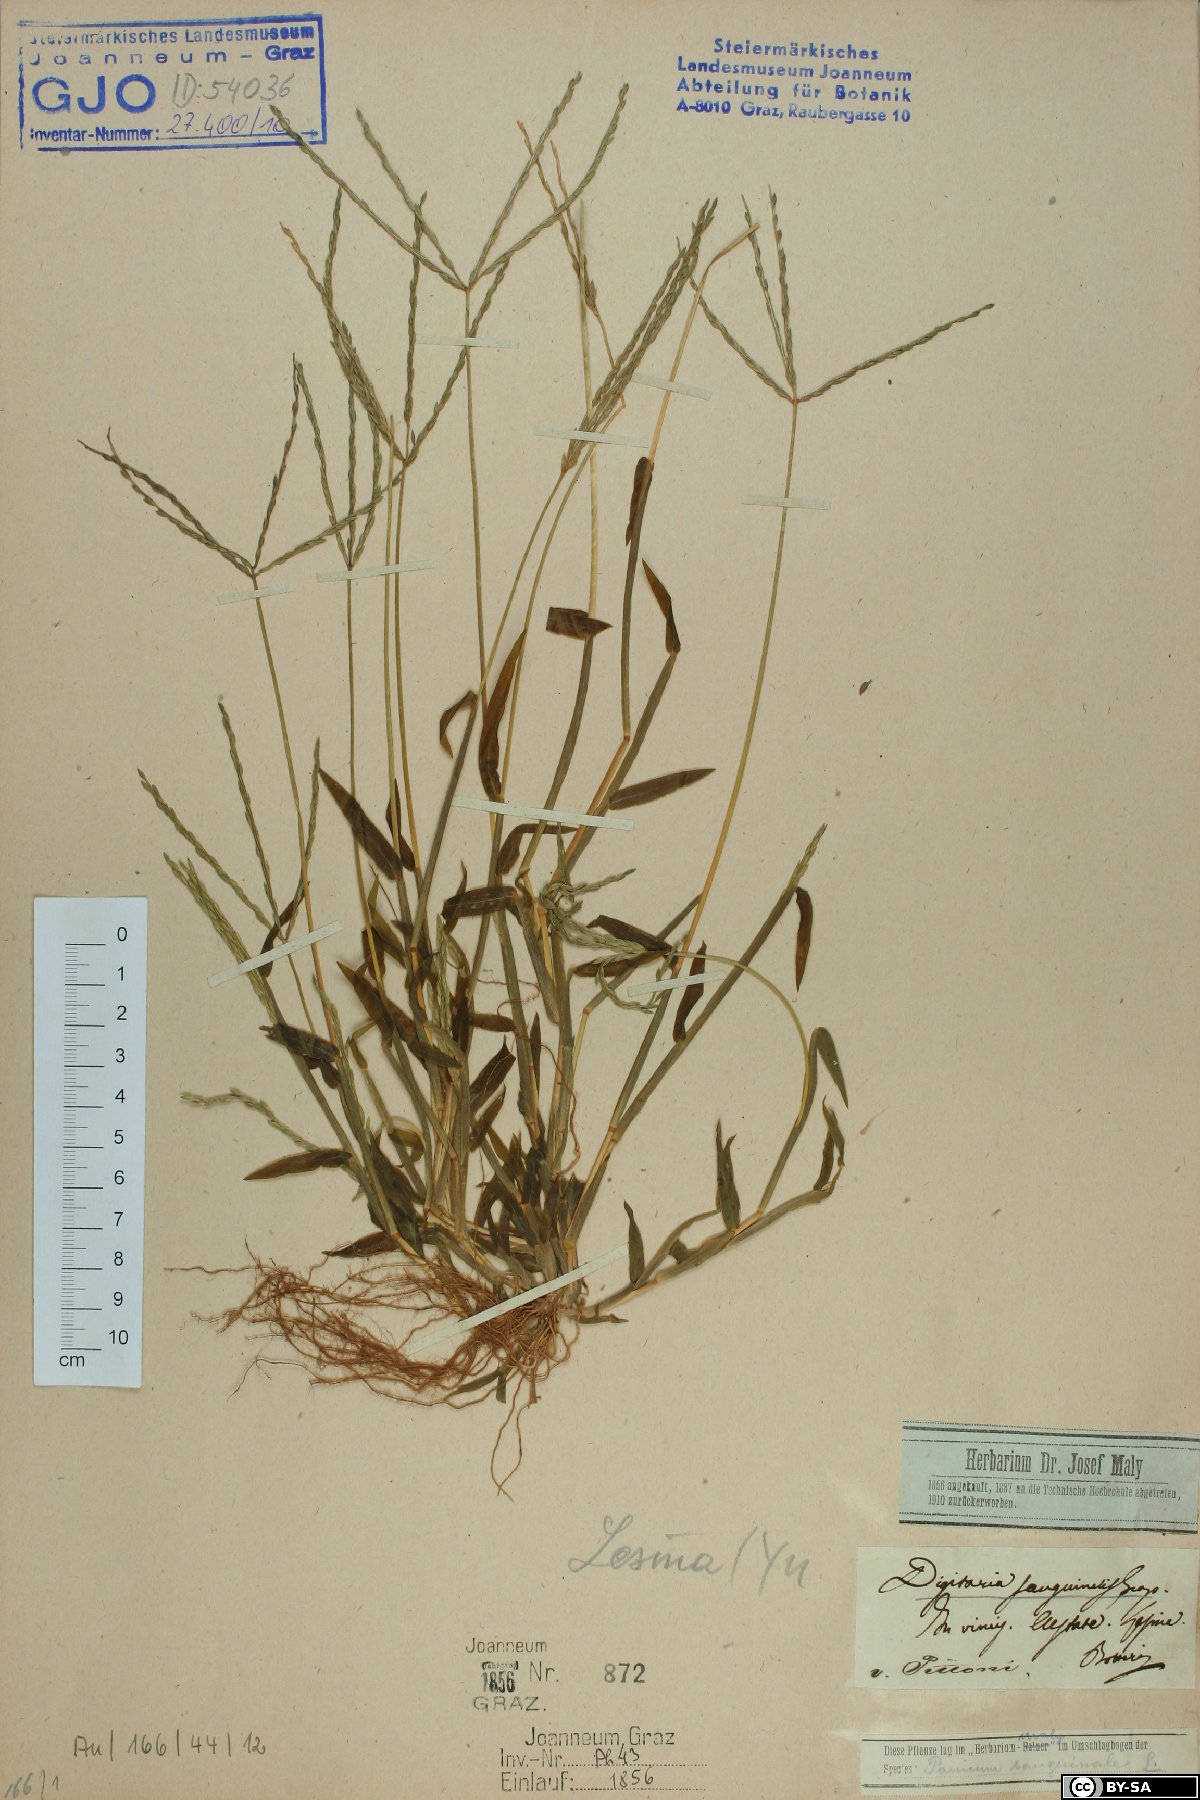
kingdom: Plantae
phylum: Tracheophyta
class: Liliopsida
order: Poales
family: Poaceae
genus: Digitaria
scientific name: Digitaria sanguinalis
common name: Hairy crabgrass
